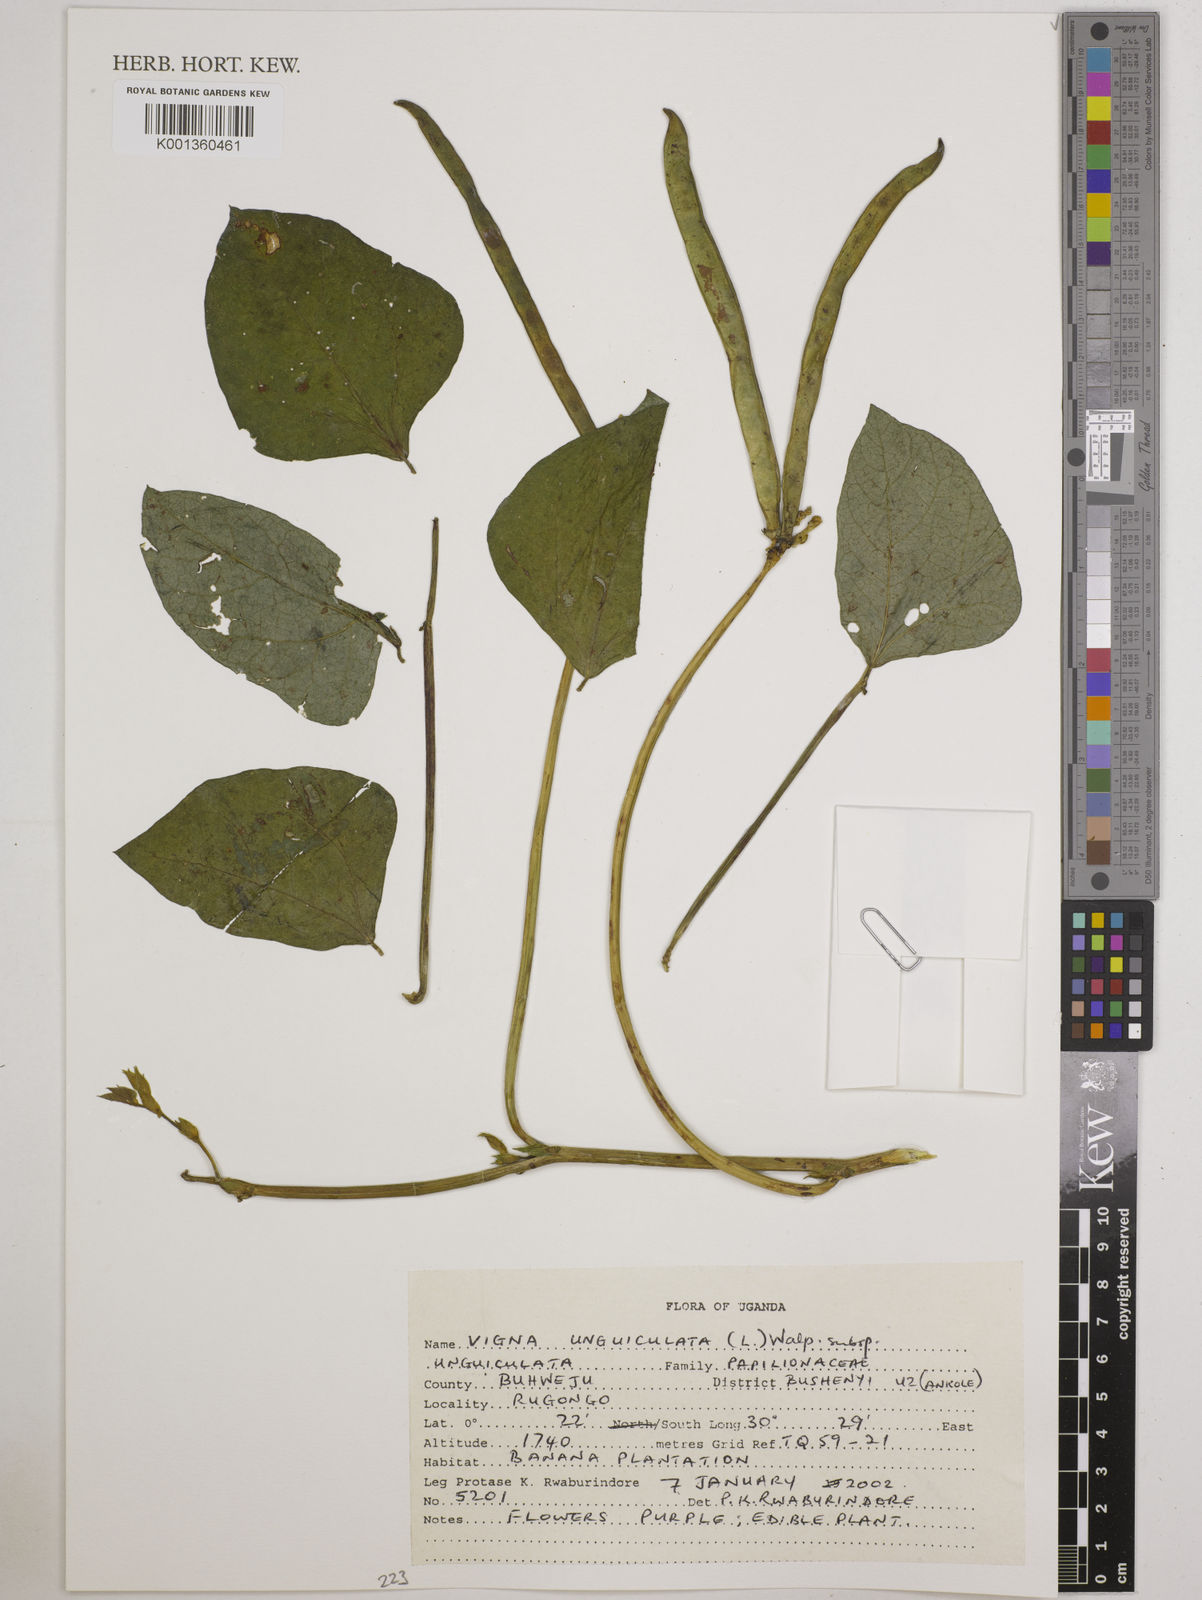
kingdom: Plantae
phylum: Tracheophyta
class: Magnoliopsida
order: Fabales
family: Fabaceae
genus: Vigna
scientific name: Vigna unguiculata
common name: Cowpea
